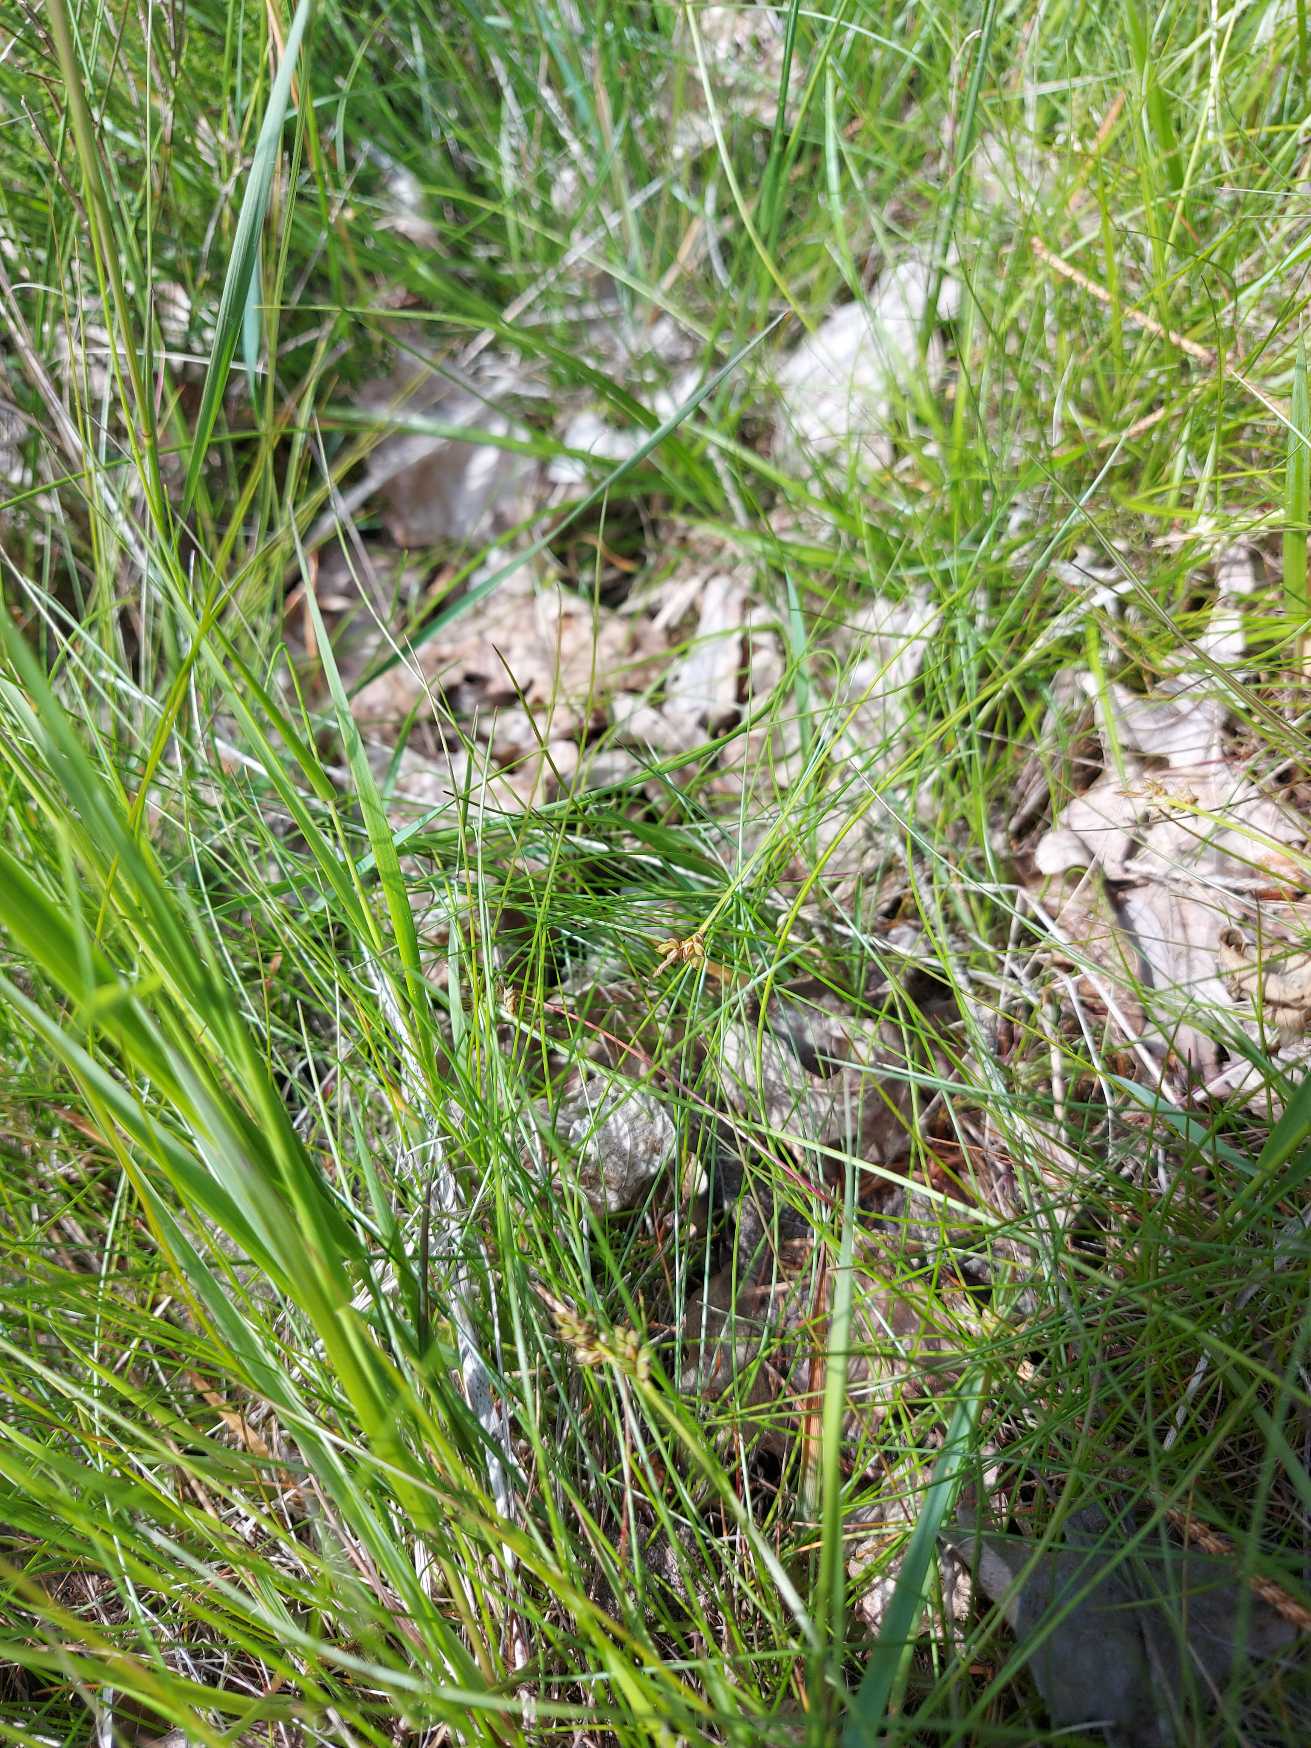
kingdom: Plantae
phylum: Tracheophyta
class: Liliopsida
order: Poales
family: Cyperaceae
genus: Carex
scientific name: Carex pilulifera
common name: Pille-star
